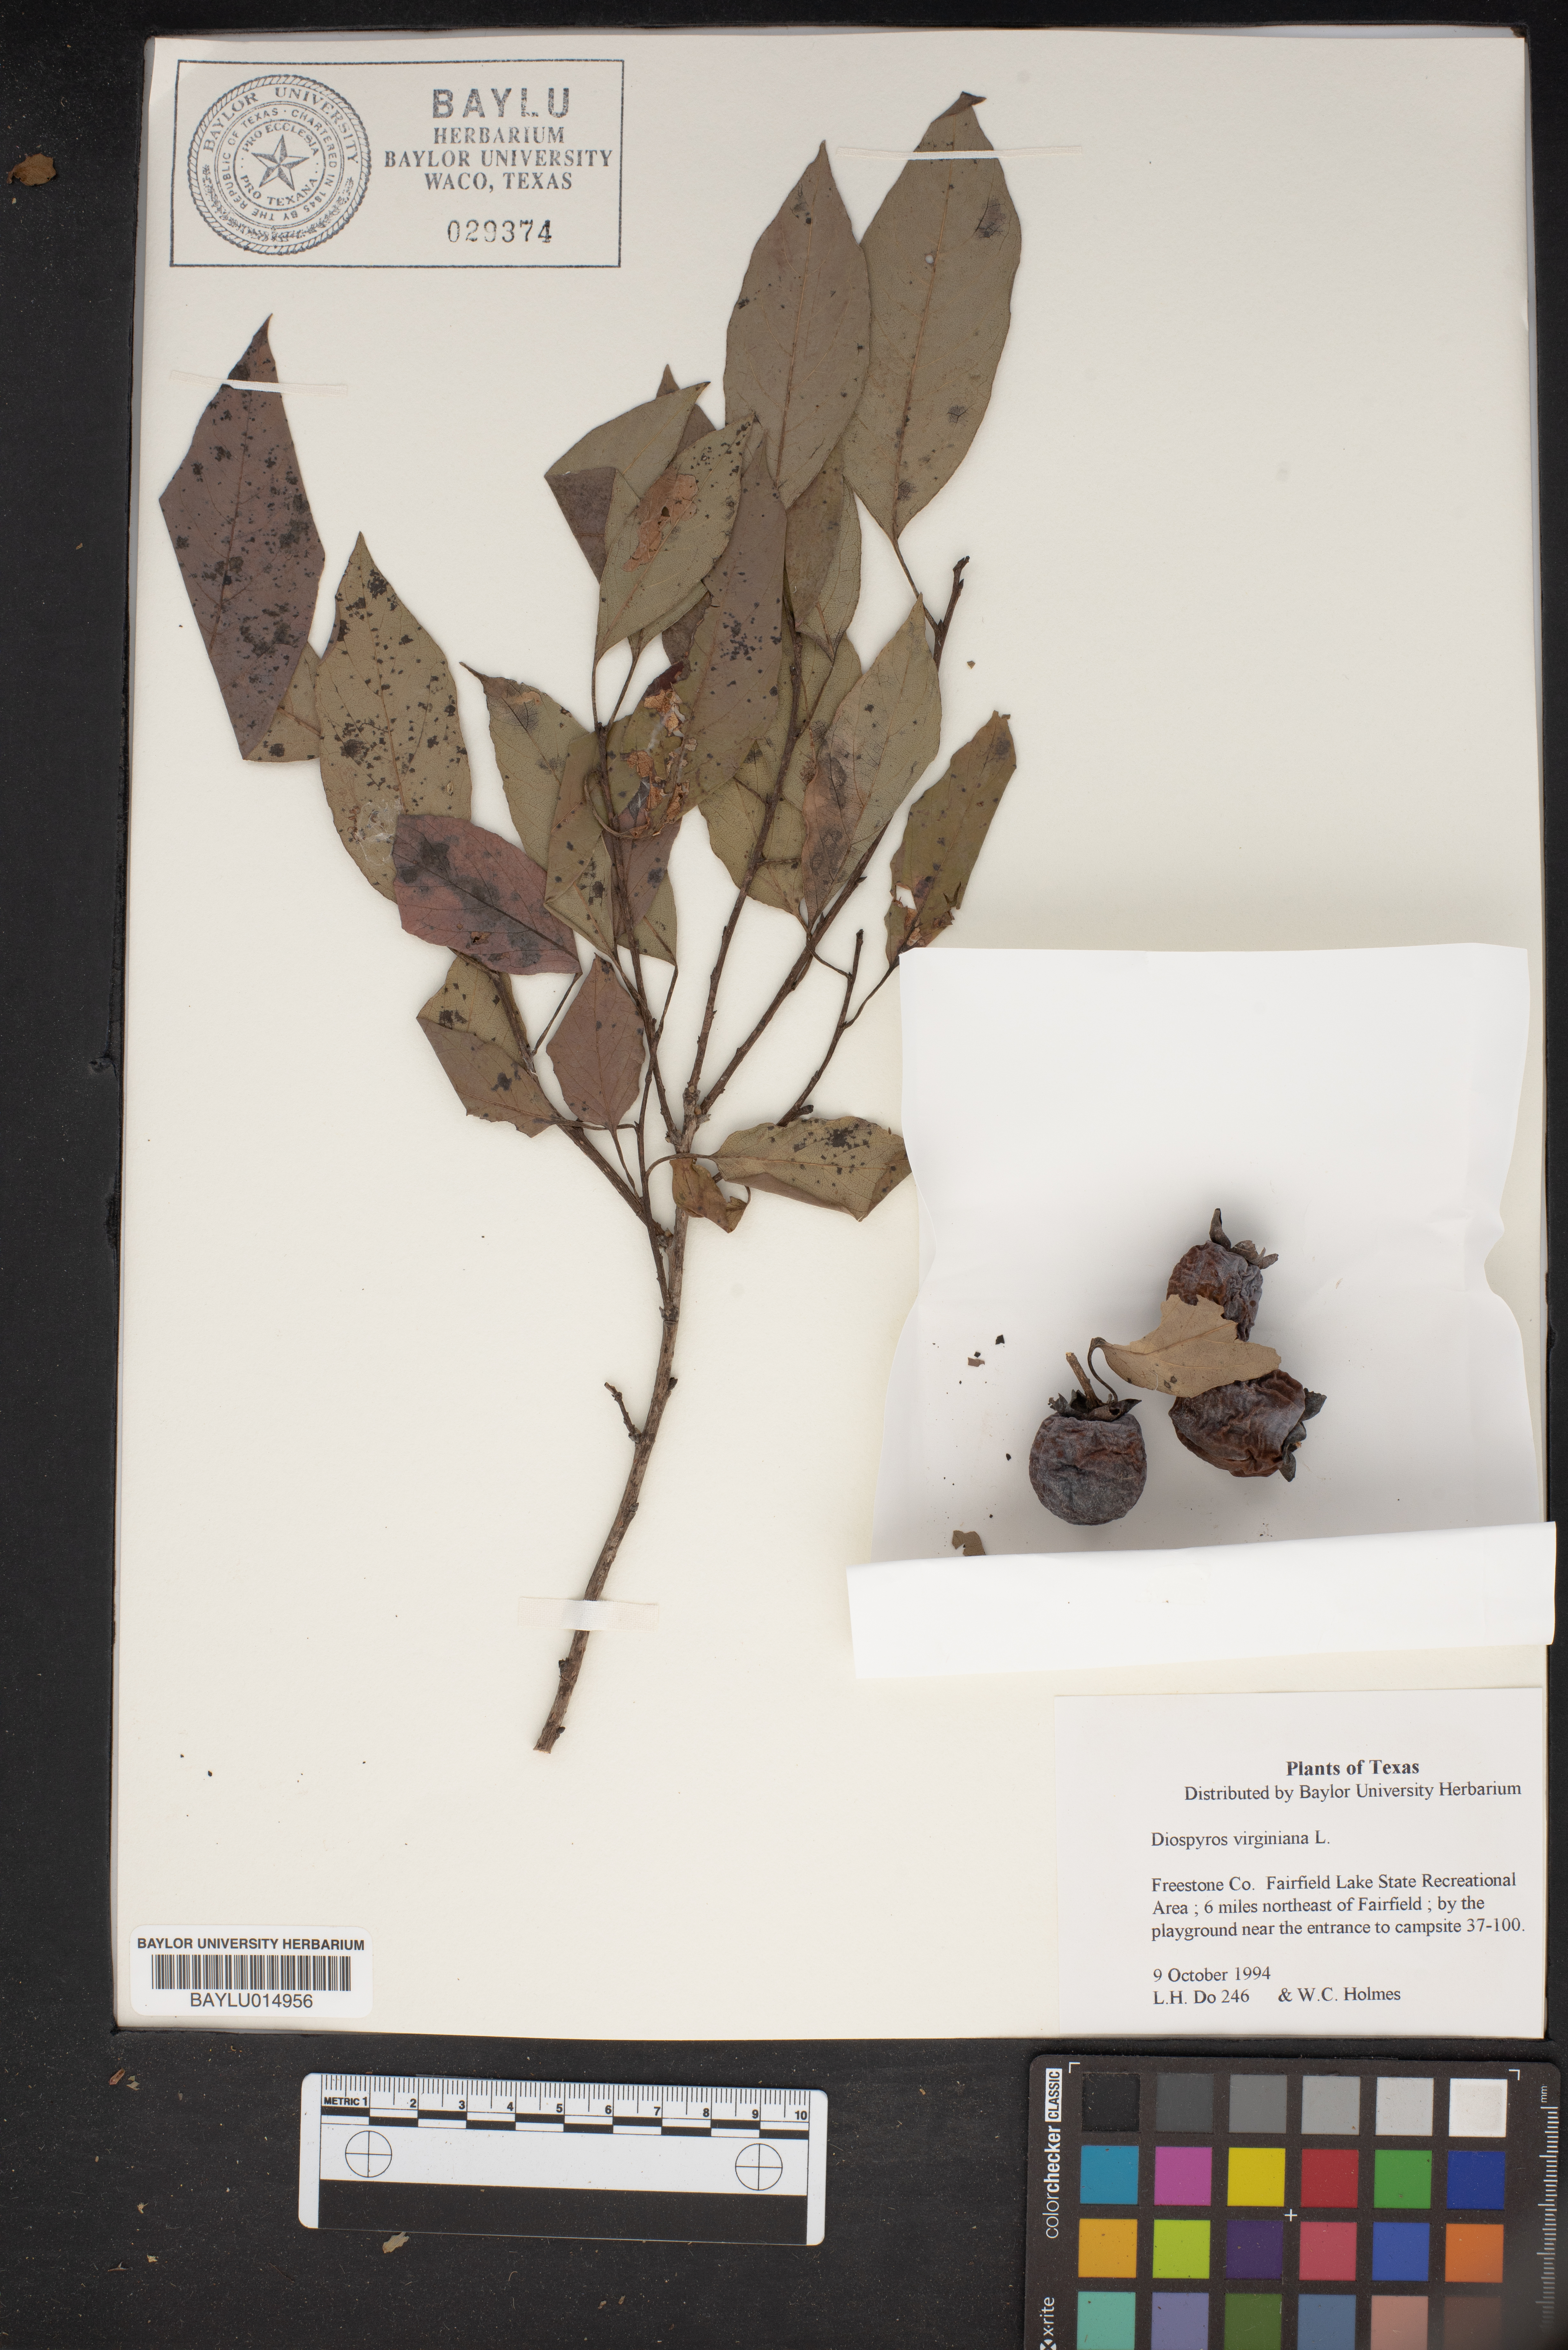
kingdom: Plantae
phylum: Tracheophyta
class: Magnoliopsida
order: Ericales
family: Ebenaceae
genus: Diospyros
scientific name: Diospyros virginiana
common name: Persimmon
